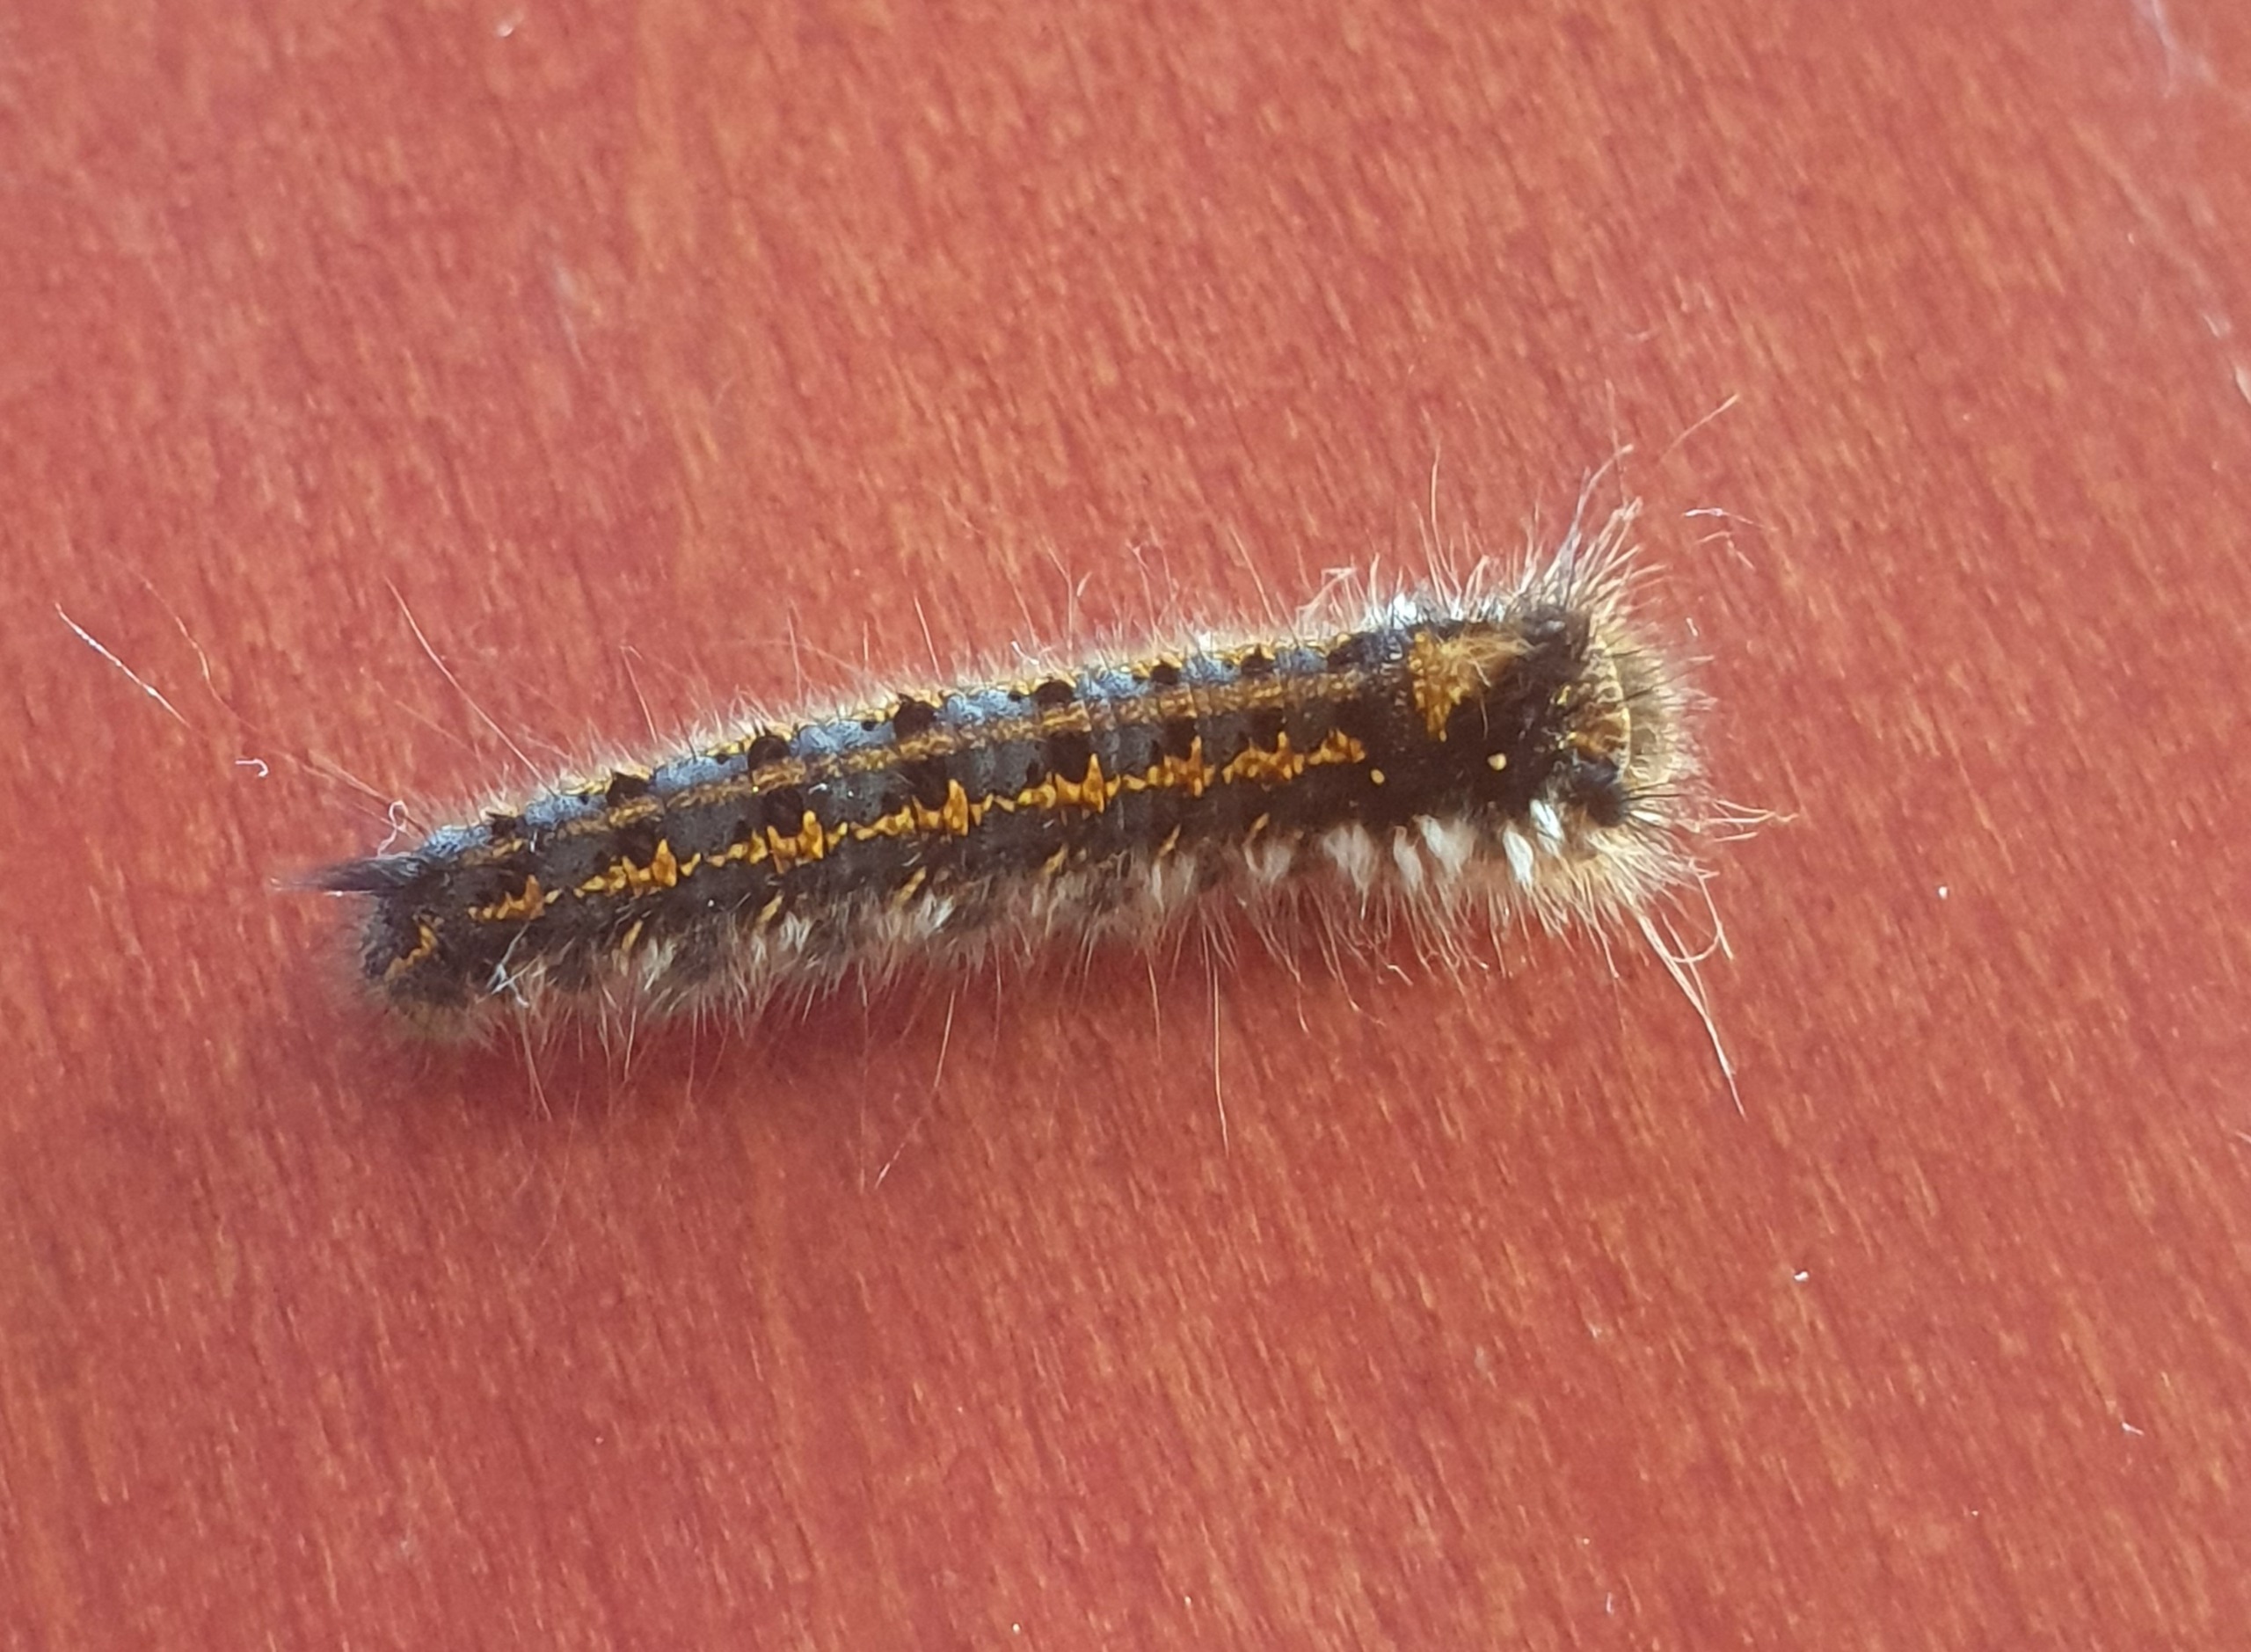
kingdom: Animalia
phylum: Arthropoda
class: Insecta
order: Lepidoptera
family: Lasiocampidae
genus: Euthrix
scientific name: Euthrix potatoria
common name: Græsspinder
